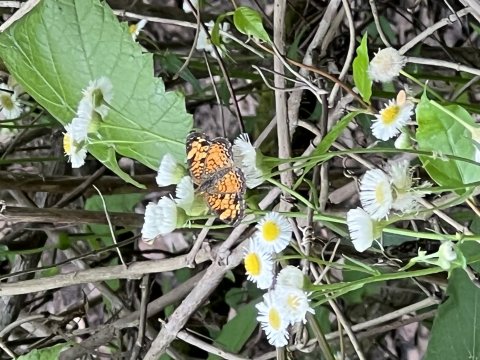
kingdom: Animalia
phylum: Arthropoda
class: Insecta
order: Lepidoptera
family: Nymphalidae
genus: Phyciodes
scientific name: Phyciodes tharos
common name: Pearl Crescent
